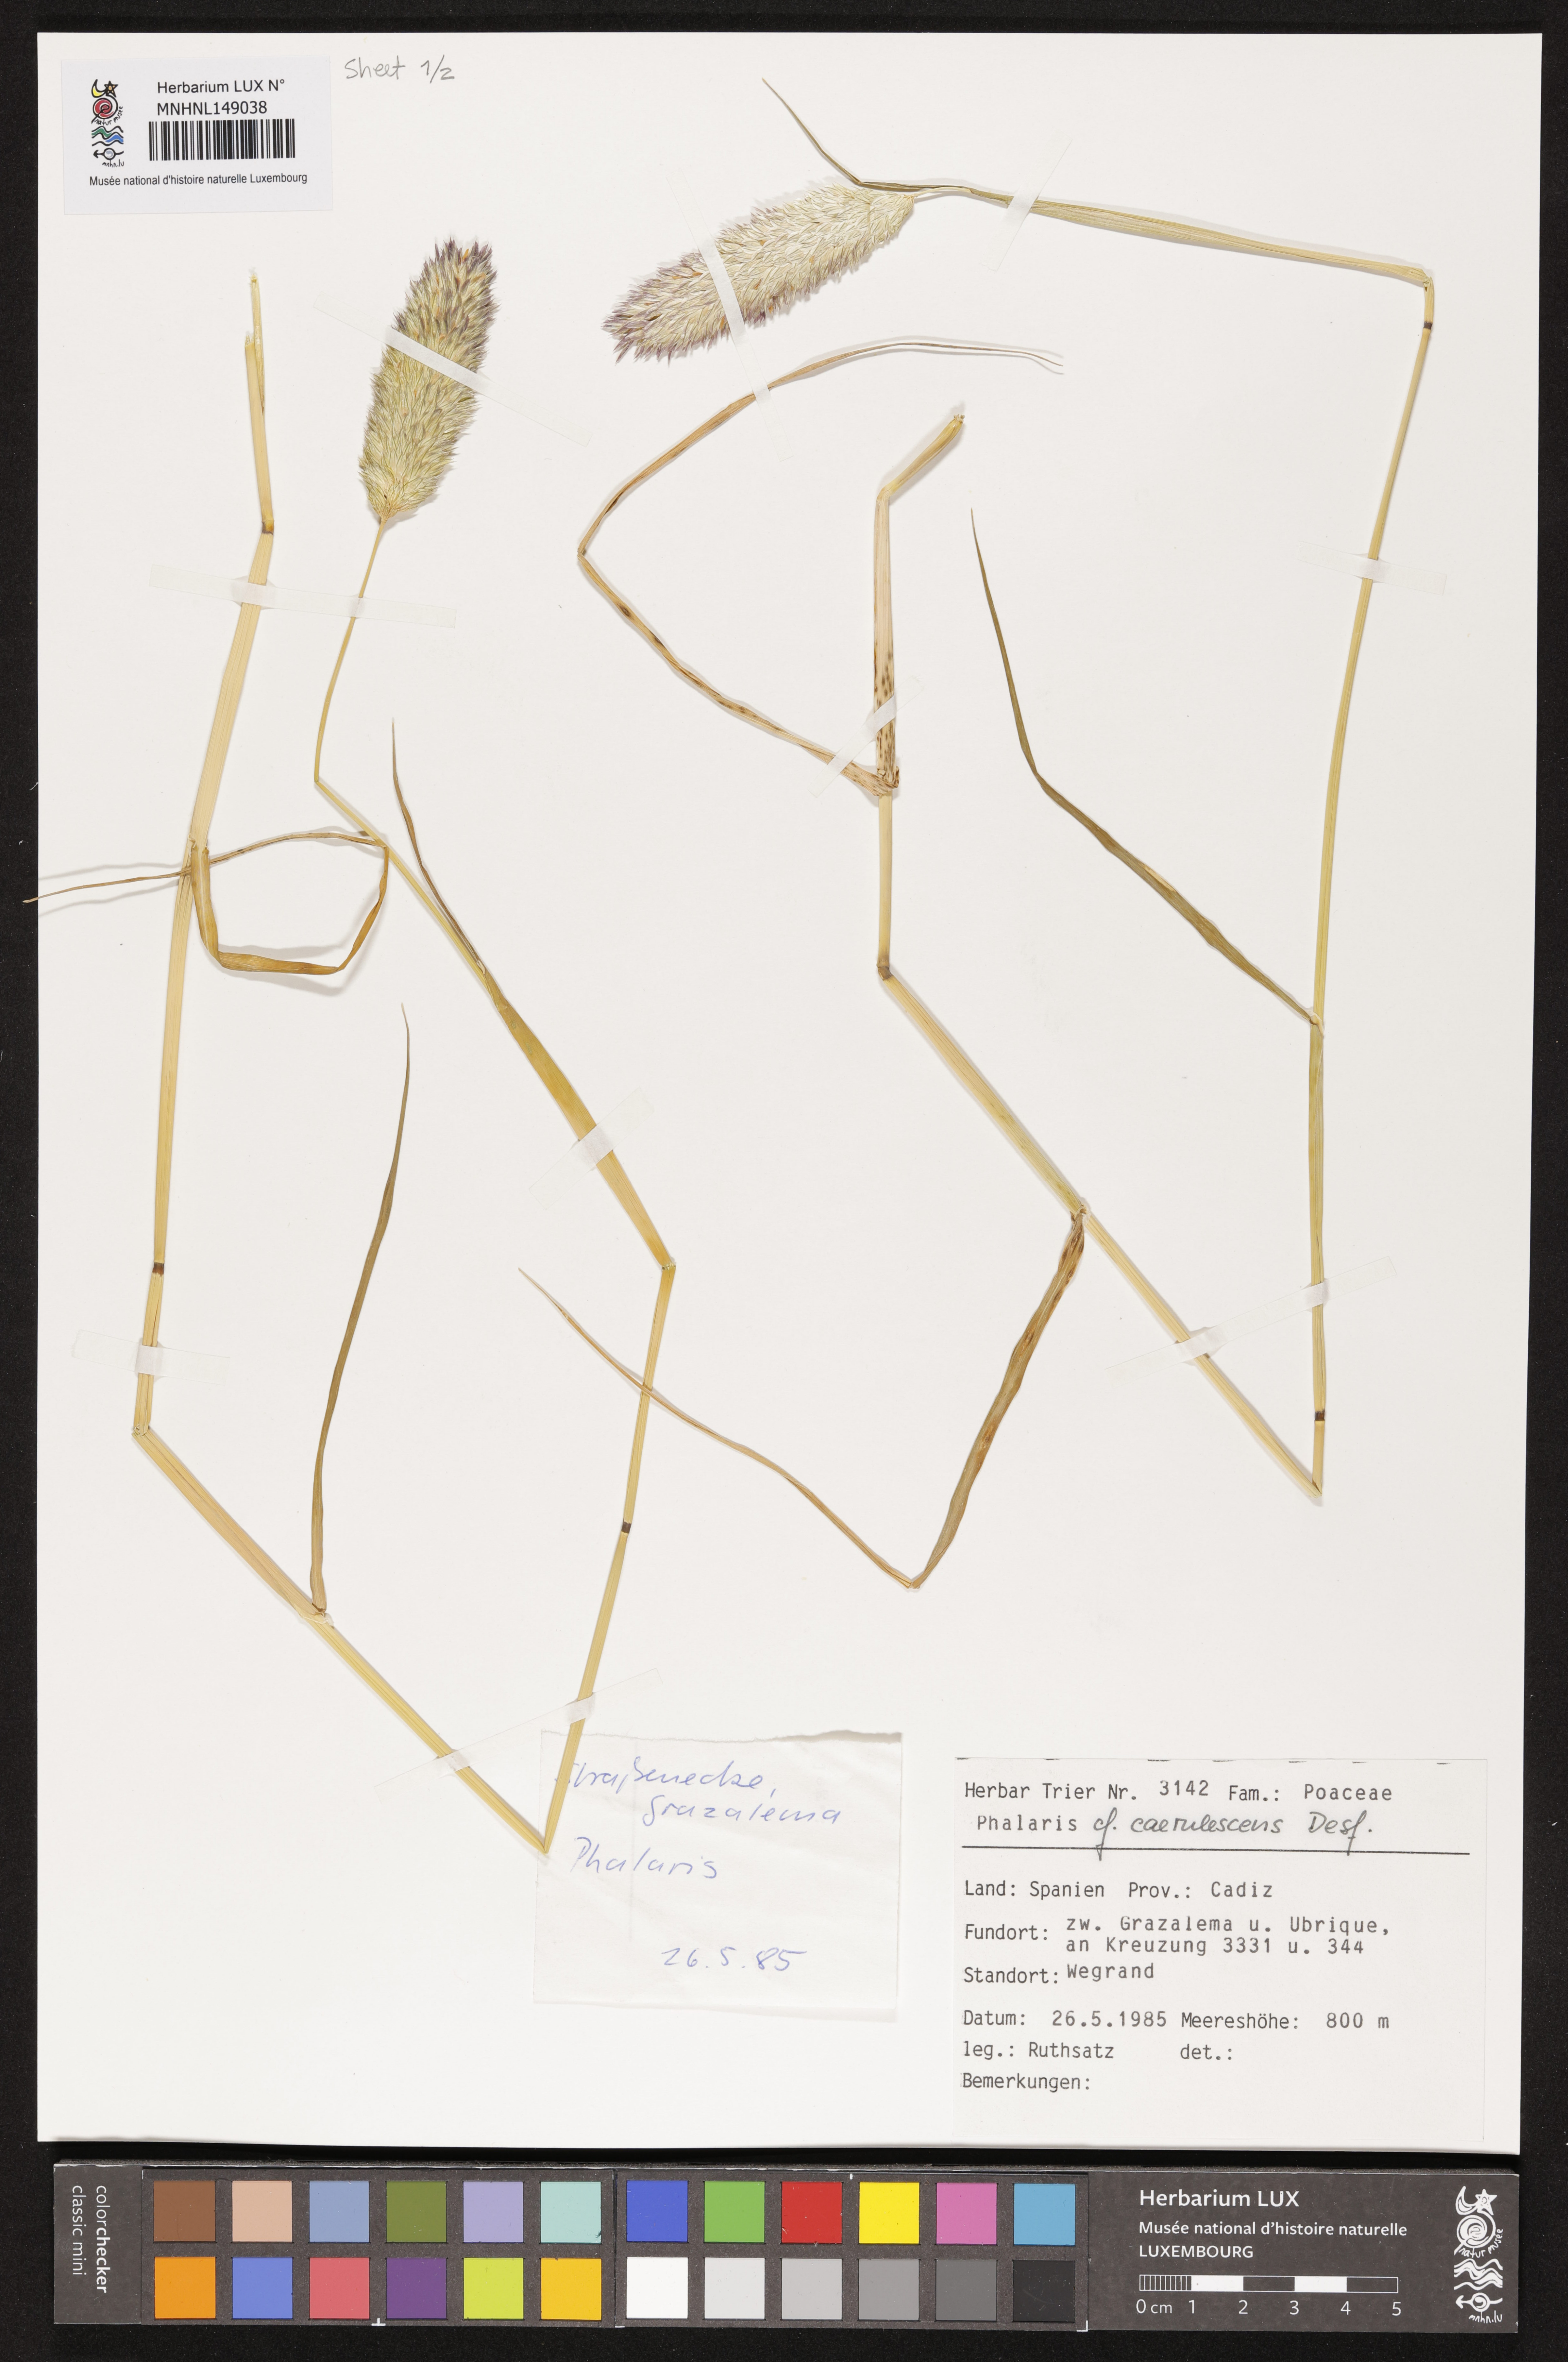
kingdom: Plantae
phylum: Tracheophyta
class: Liliopsida
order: Poales
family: Poaceae
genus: Phalaris
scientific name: Phalaris coerulescens
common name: Sunolgrass
